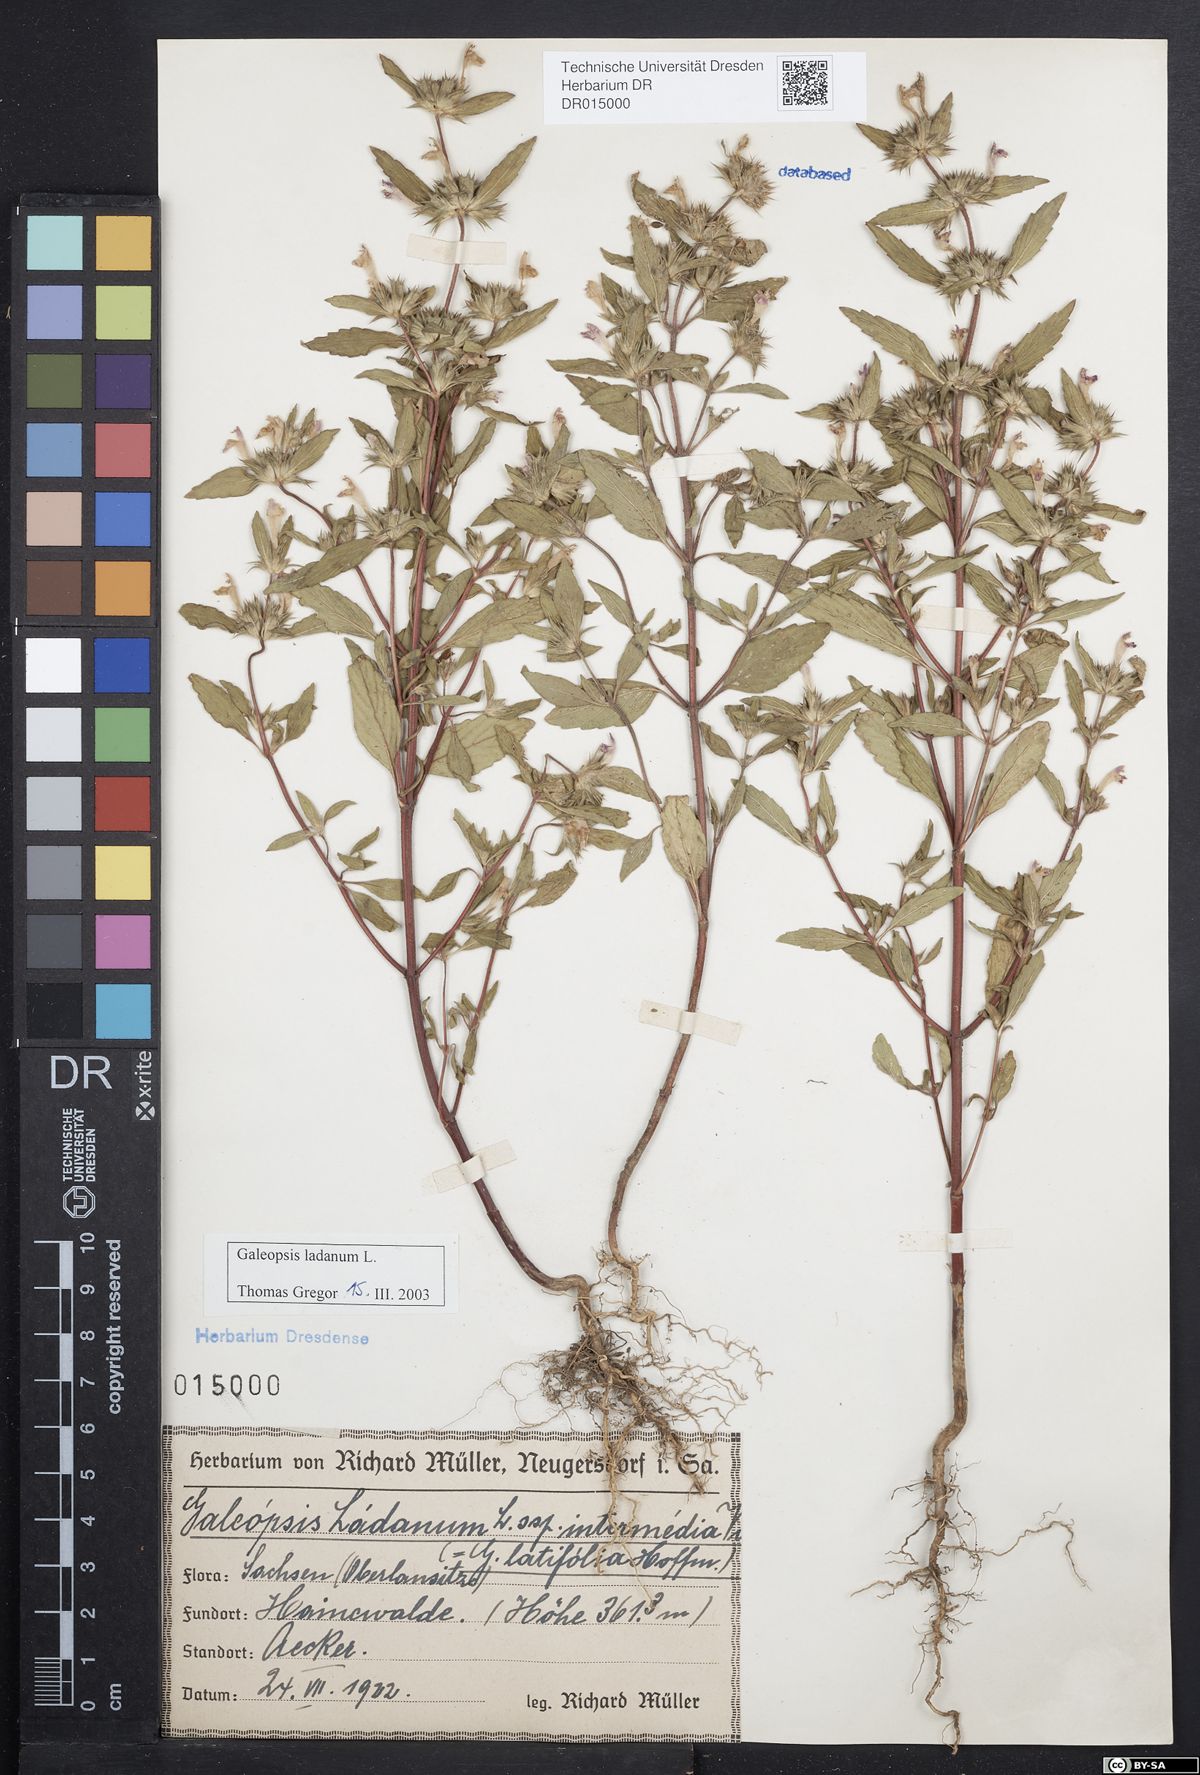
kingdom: Plantae
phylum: Tracheophyta
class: Magnoliopsida
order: Lamiales
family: Lamiaceae
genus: Galeopsis
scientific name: Galeopsis ladanum
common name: Broad-leaved hemp-nettle
